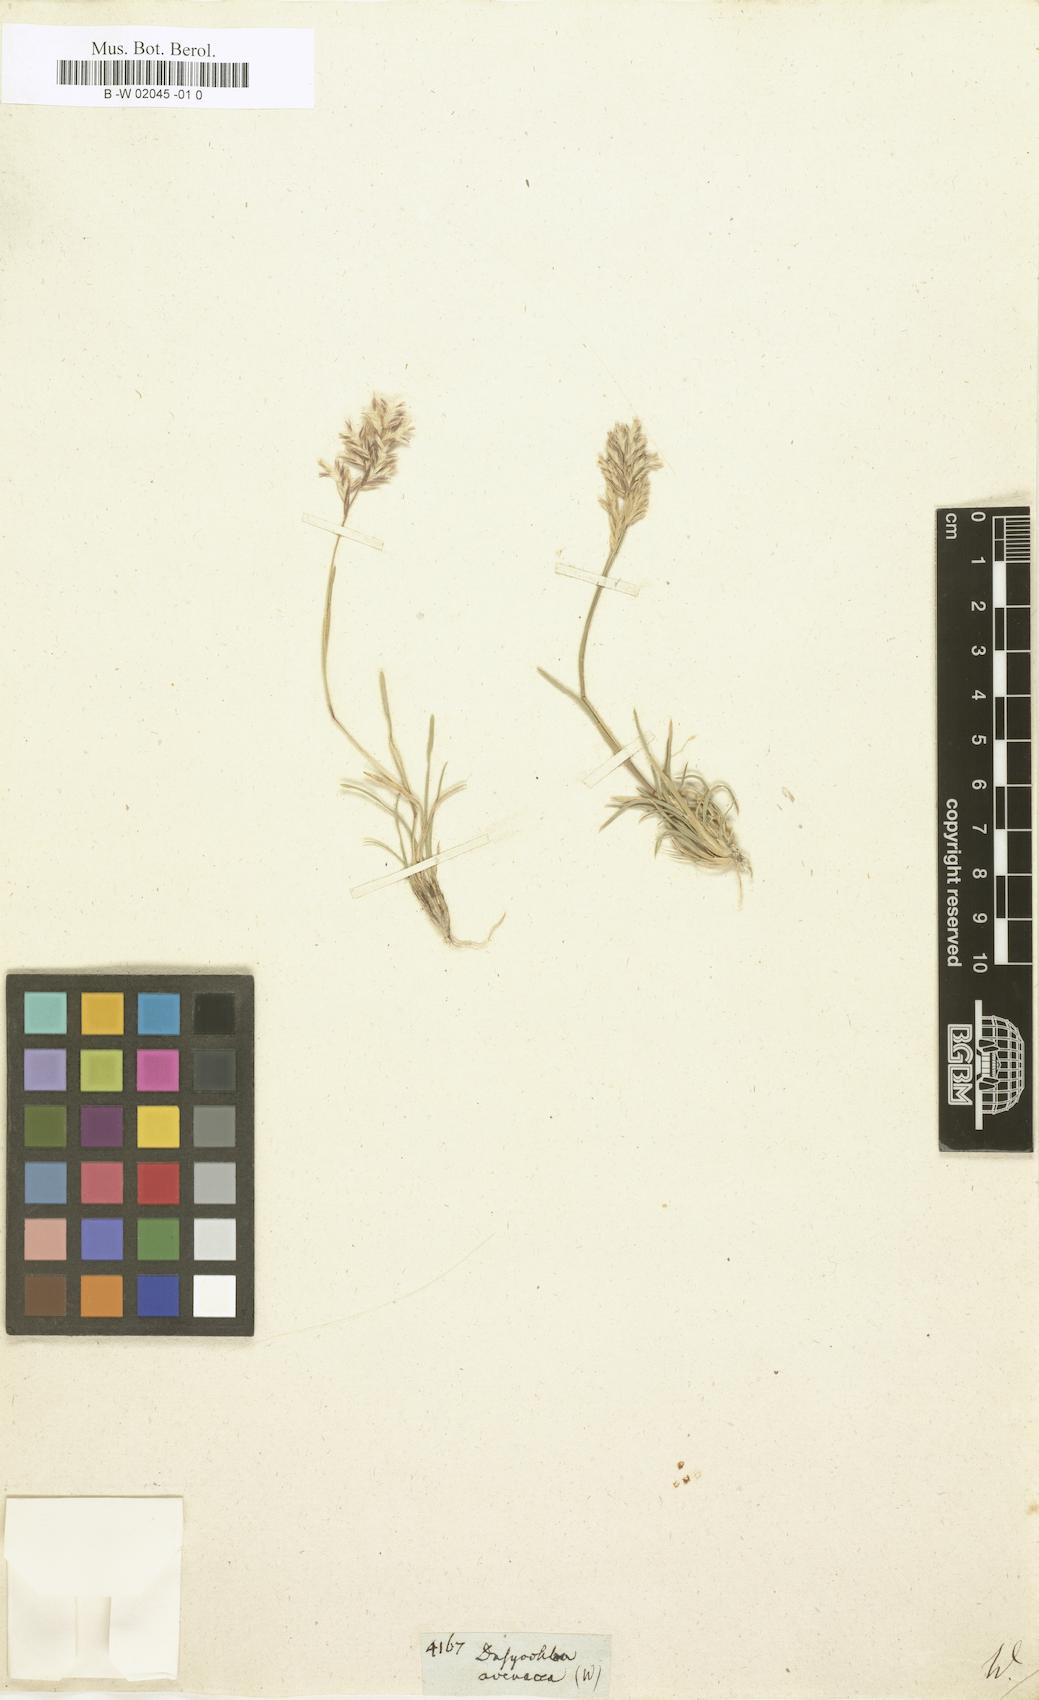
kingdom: Plantae
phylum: Tracheophyta
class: Liliopsida
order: Poales
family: Poaceae
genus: Erioneuron
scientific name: Erioneuron avenaceum
